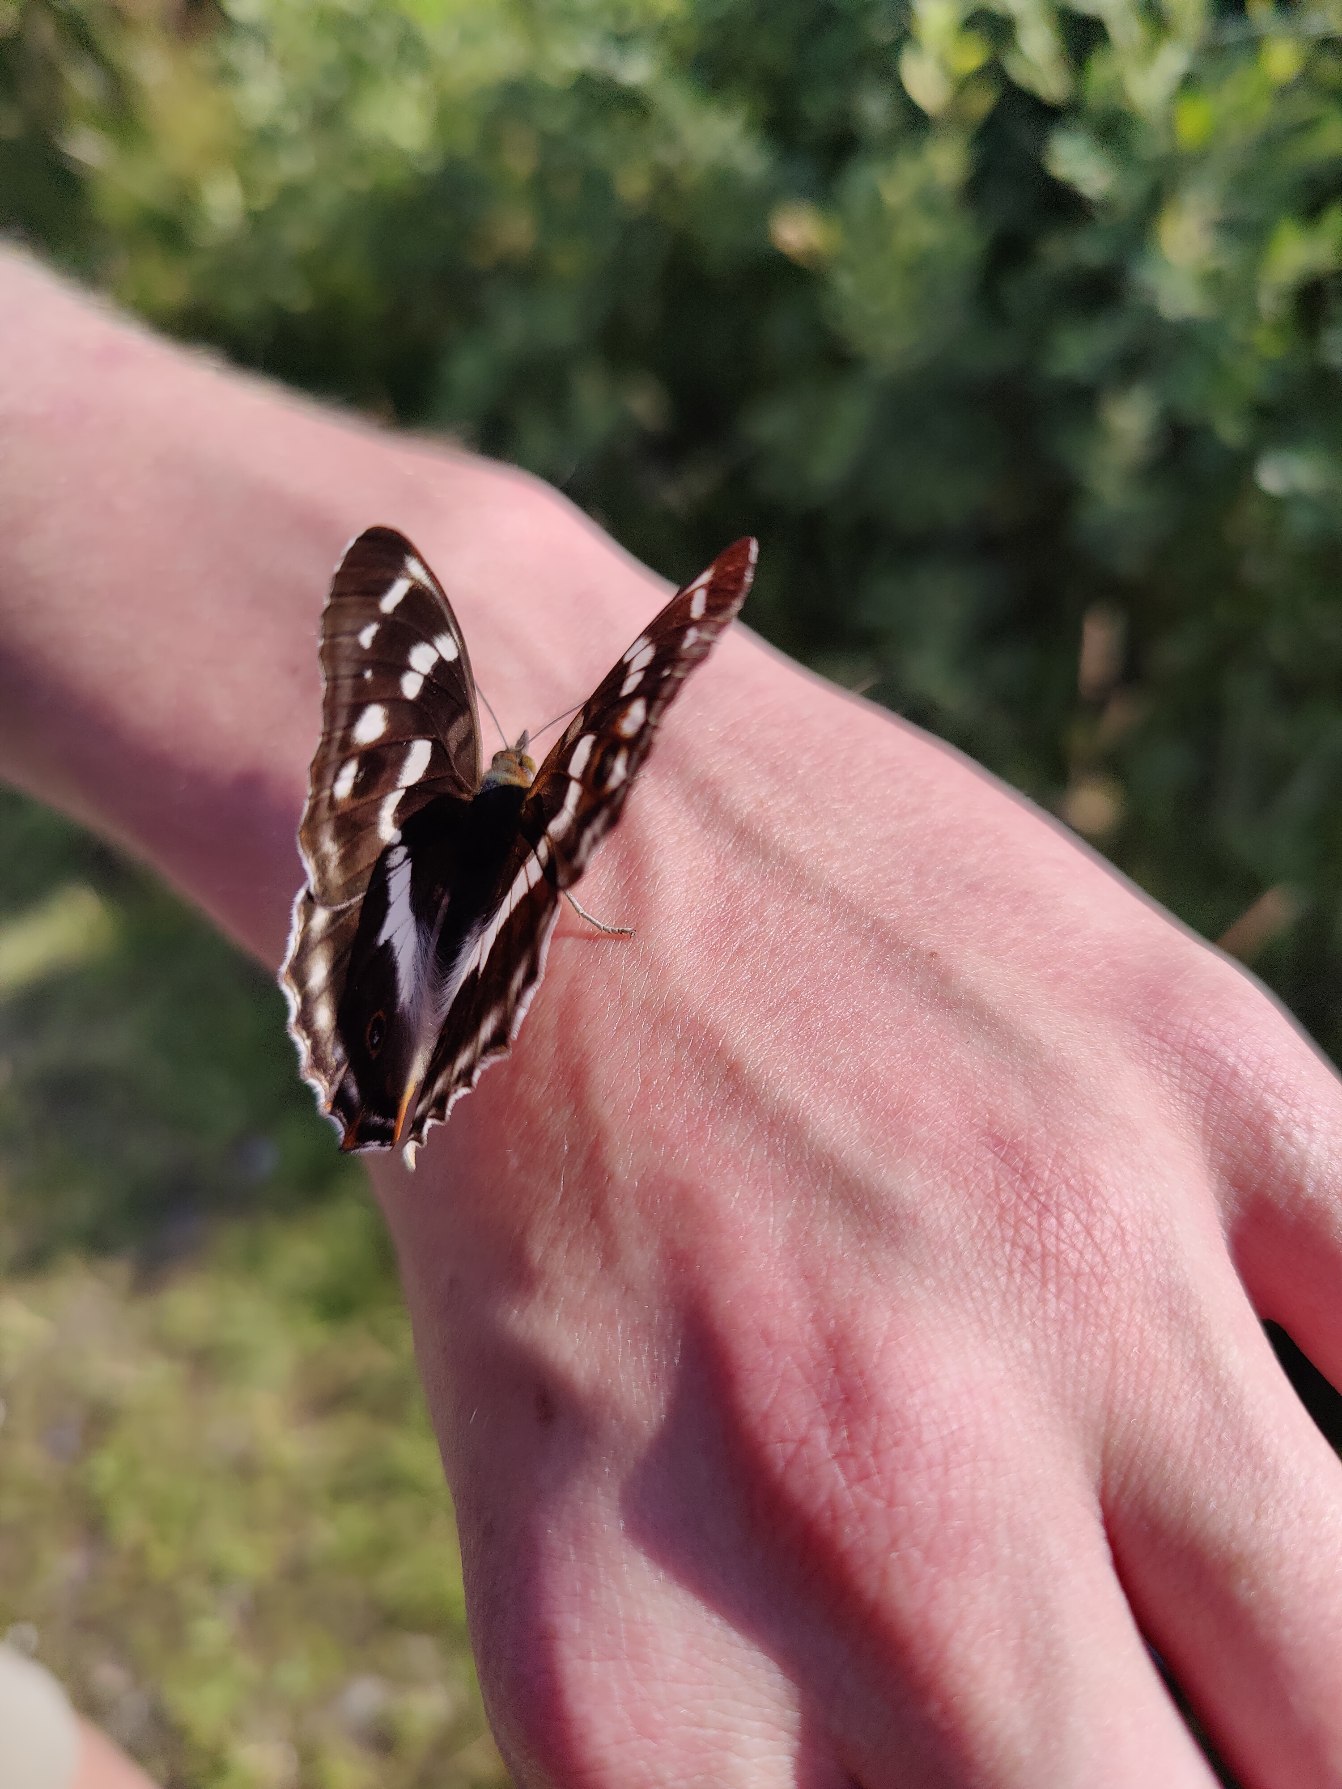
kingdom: Animalia
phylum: Arthropoda
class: Insecta
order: Lepidoptera
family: Nymphalidae
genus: Apatura
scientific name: Apatura iris
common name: Iris
